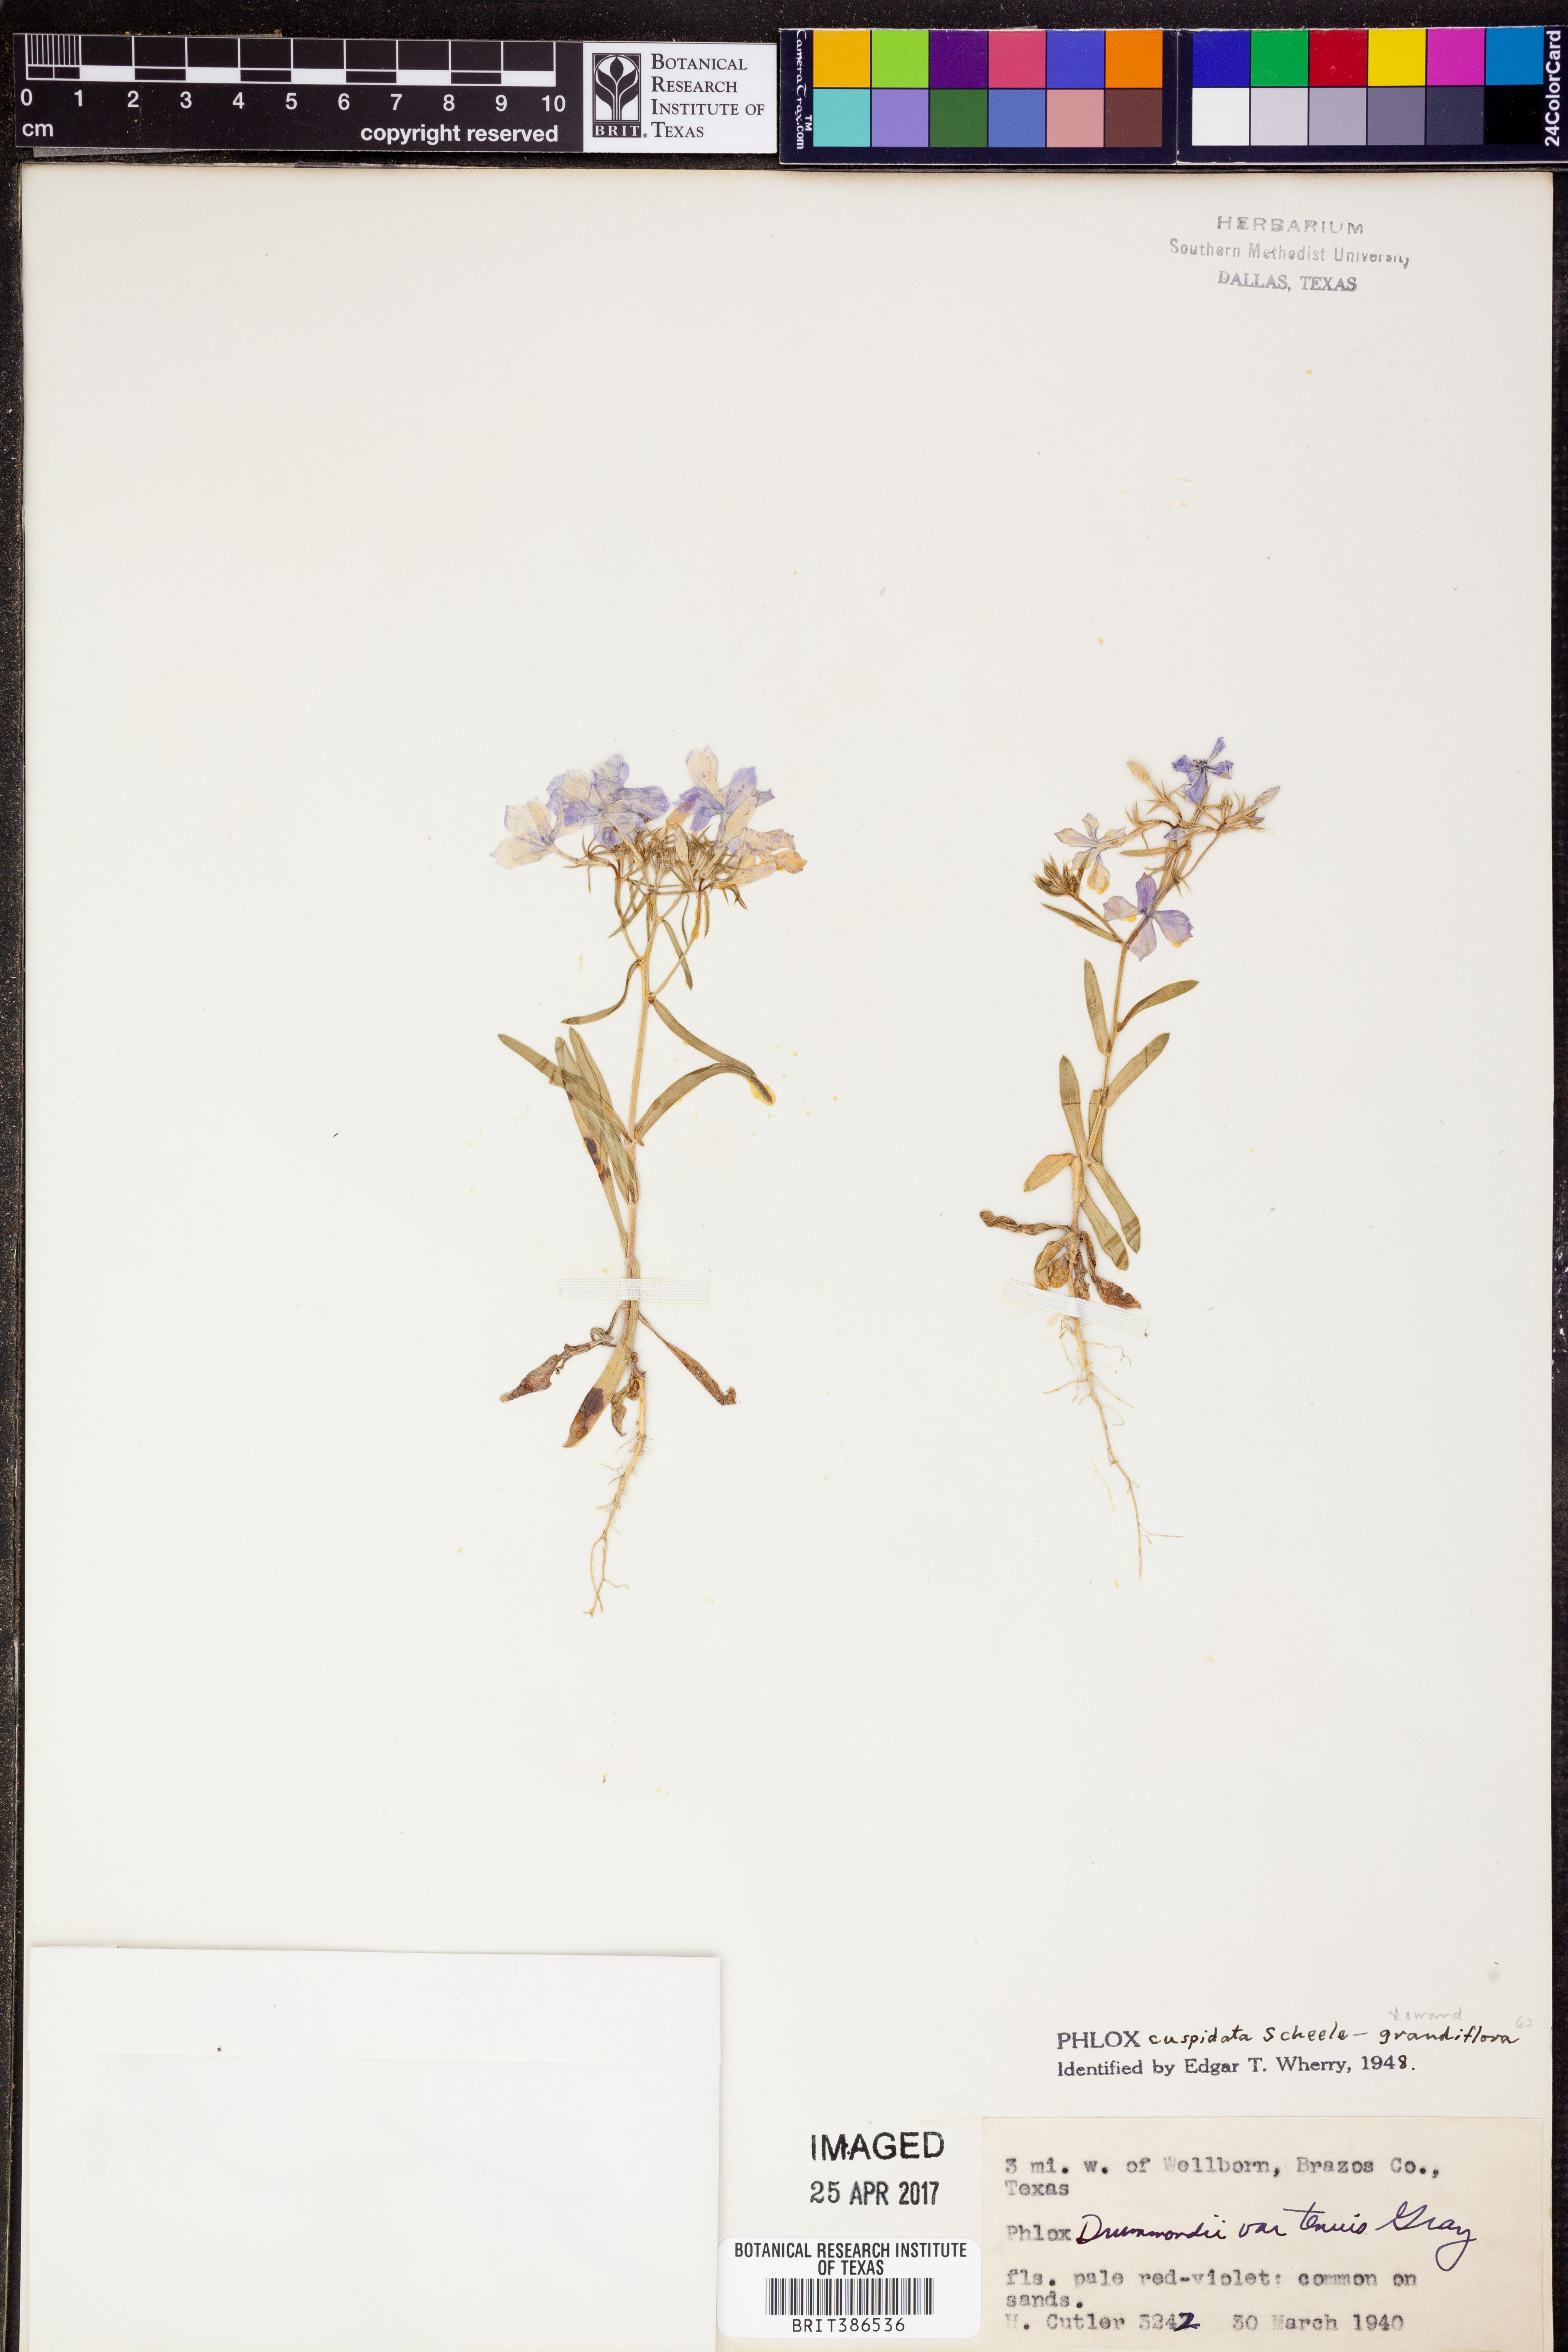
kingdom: Plantae
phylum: Tracheophyta
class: Magnoliopsida
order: Ericales
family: Polemoniaceae
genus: Phlox
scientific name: Phlox cuspidata
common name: Pointed phlox
